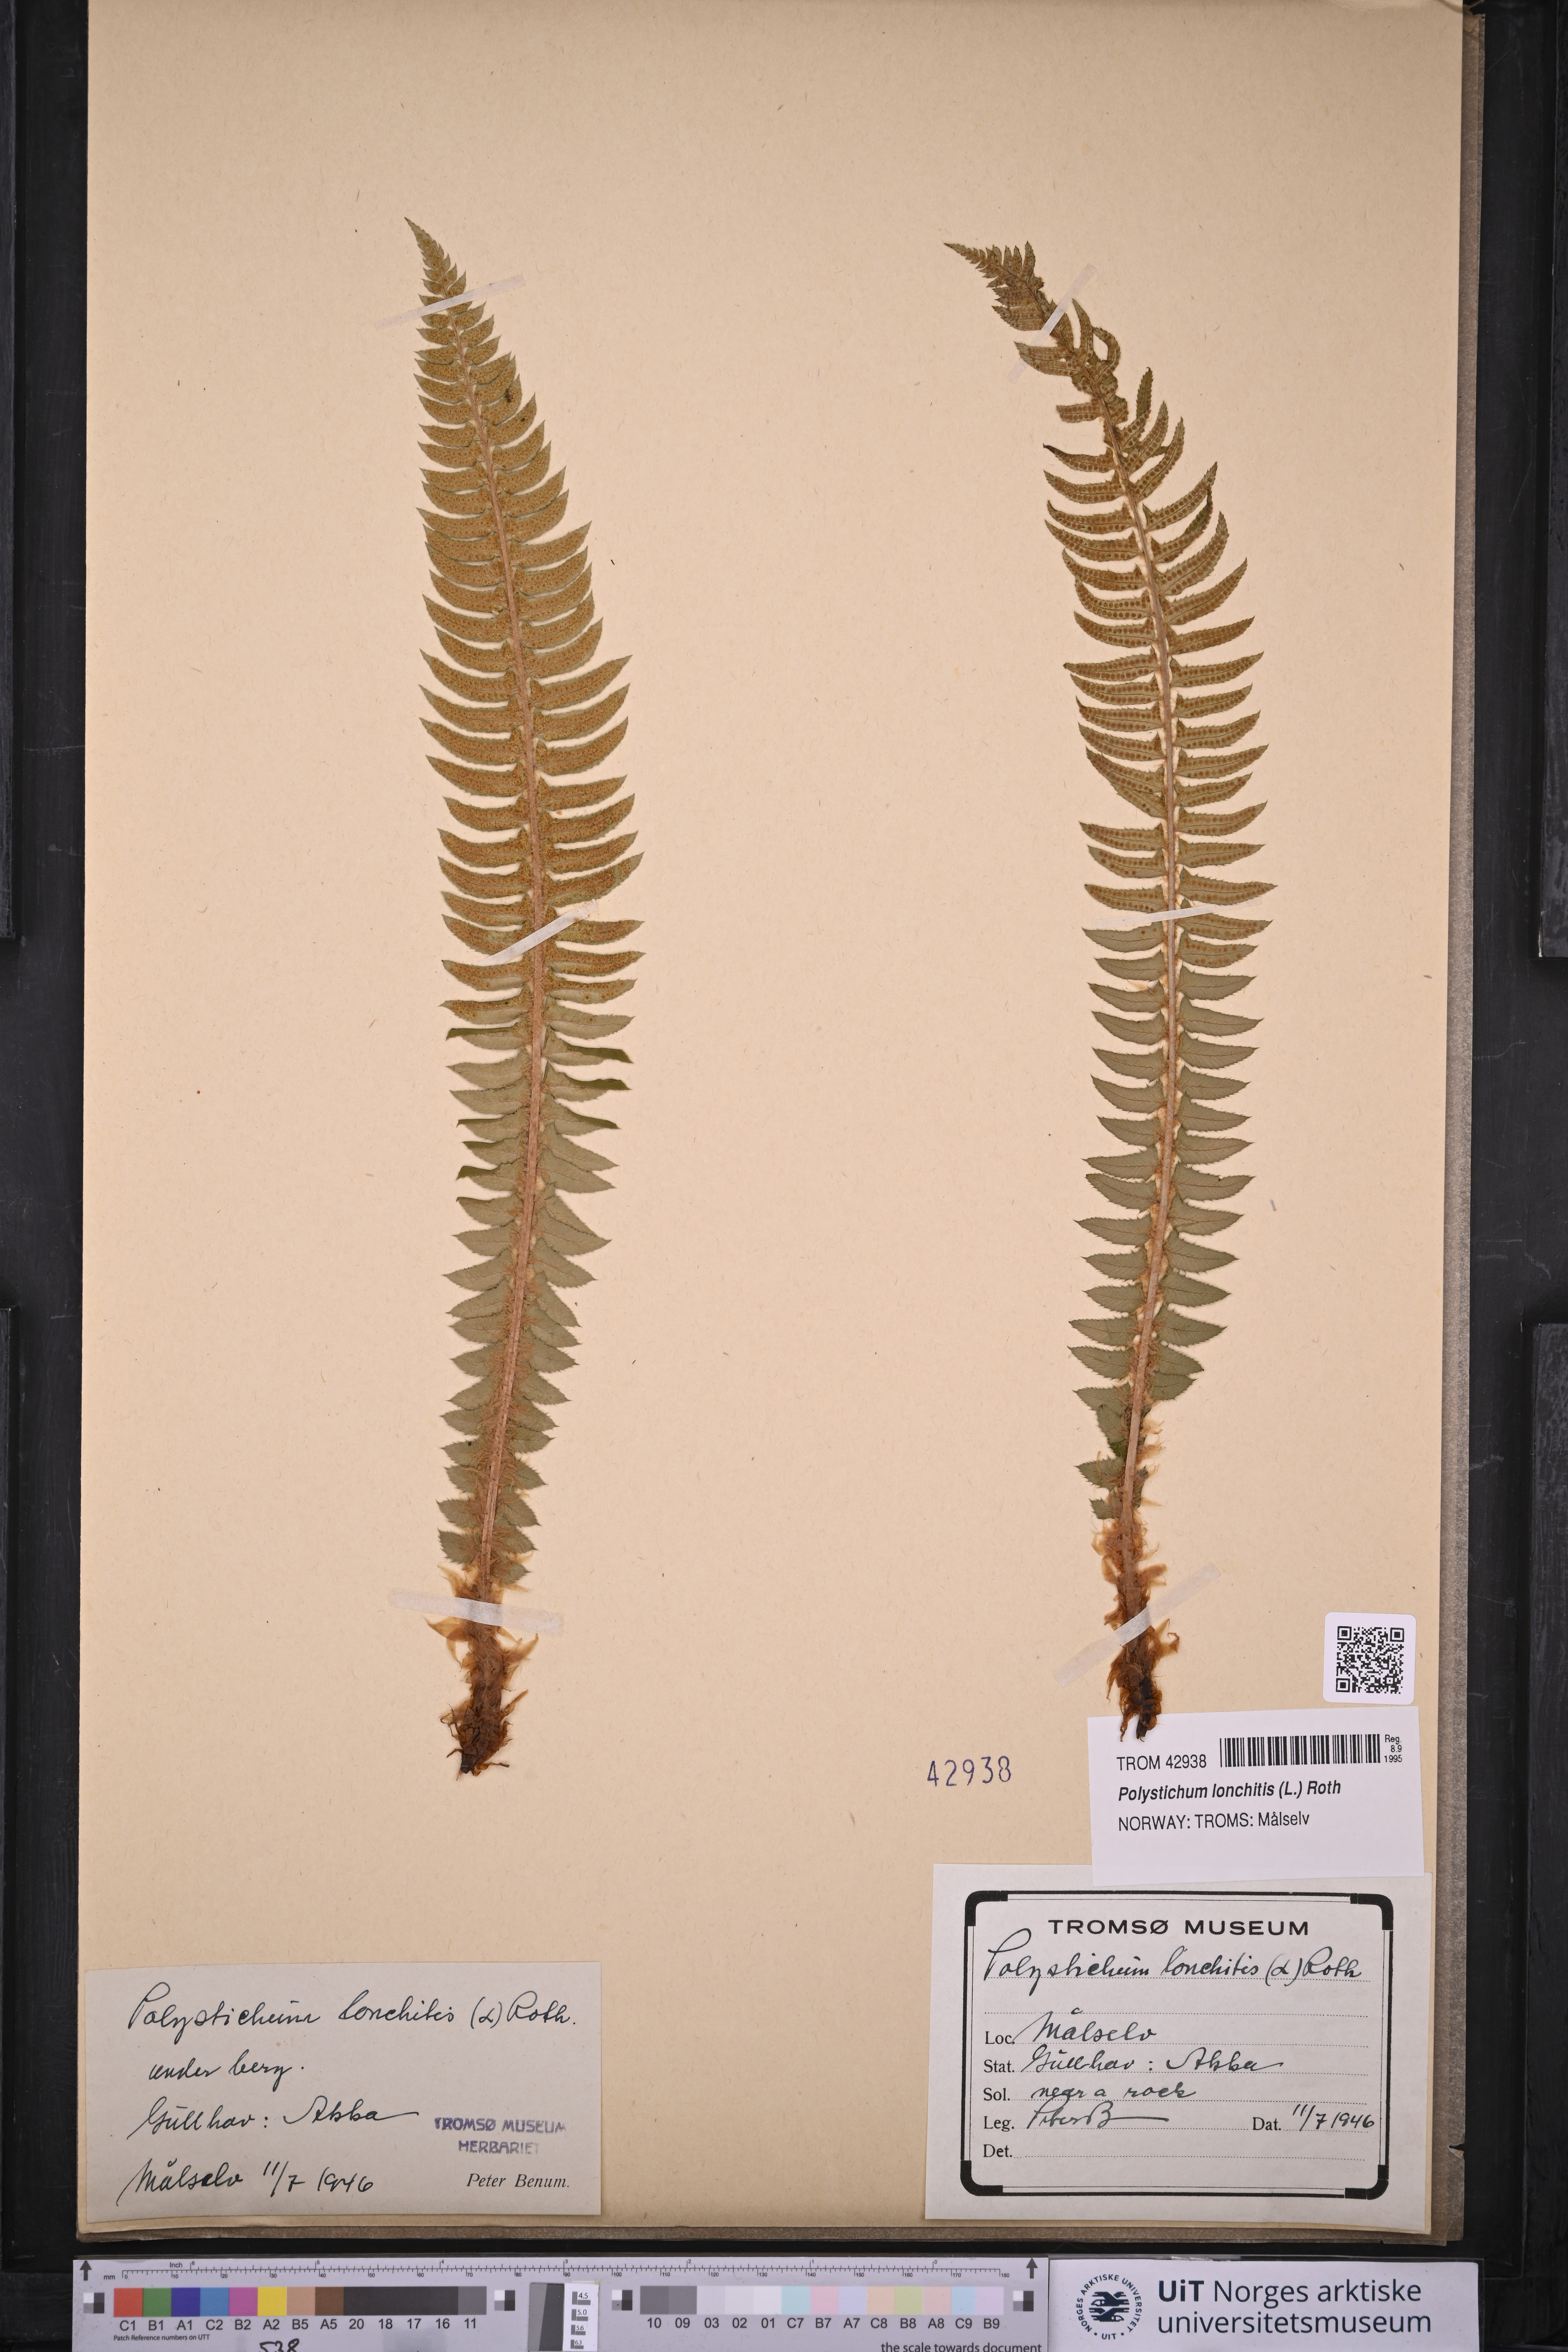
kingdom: Plantae
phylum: Tracheophyta
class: Polypodiopsida
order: Polypodiales
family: Dryopteridaceae
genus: Polystichum
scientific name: Polystichum lonchitis
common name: Holly fern
